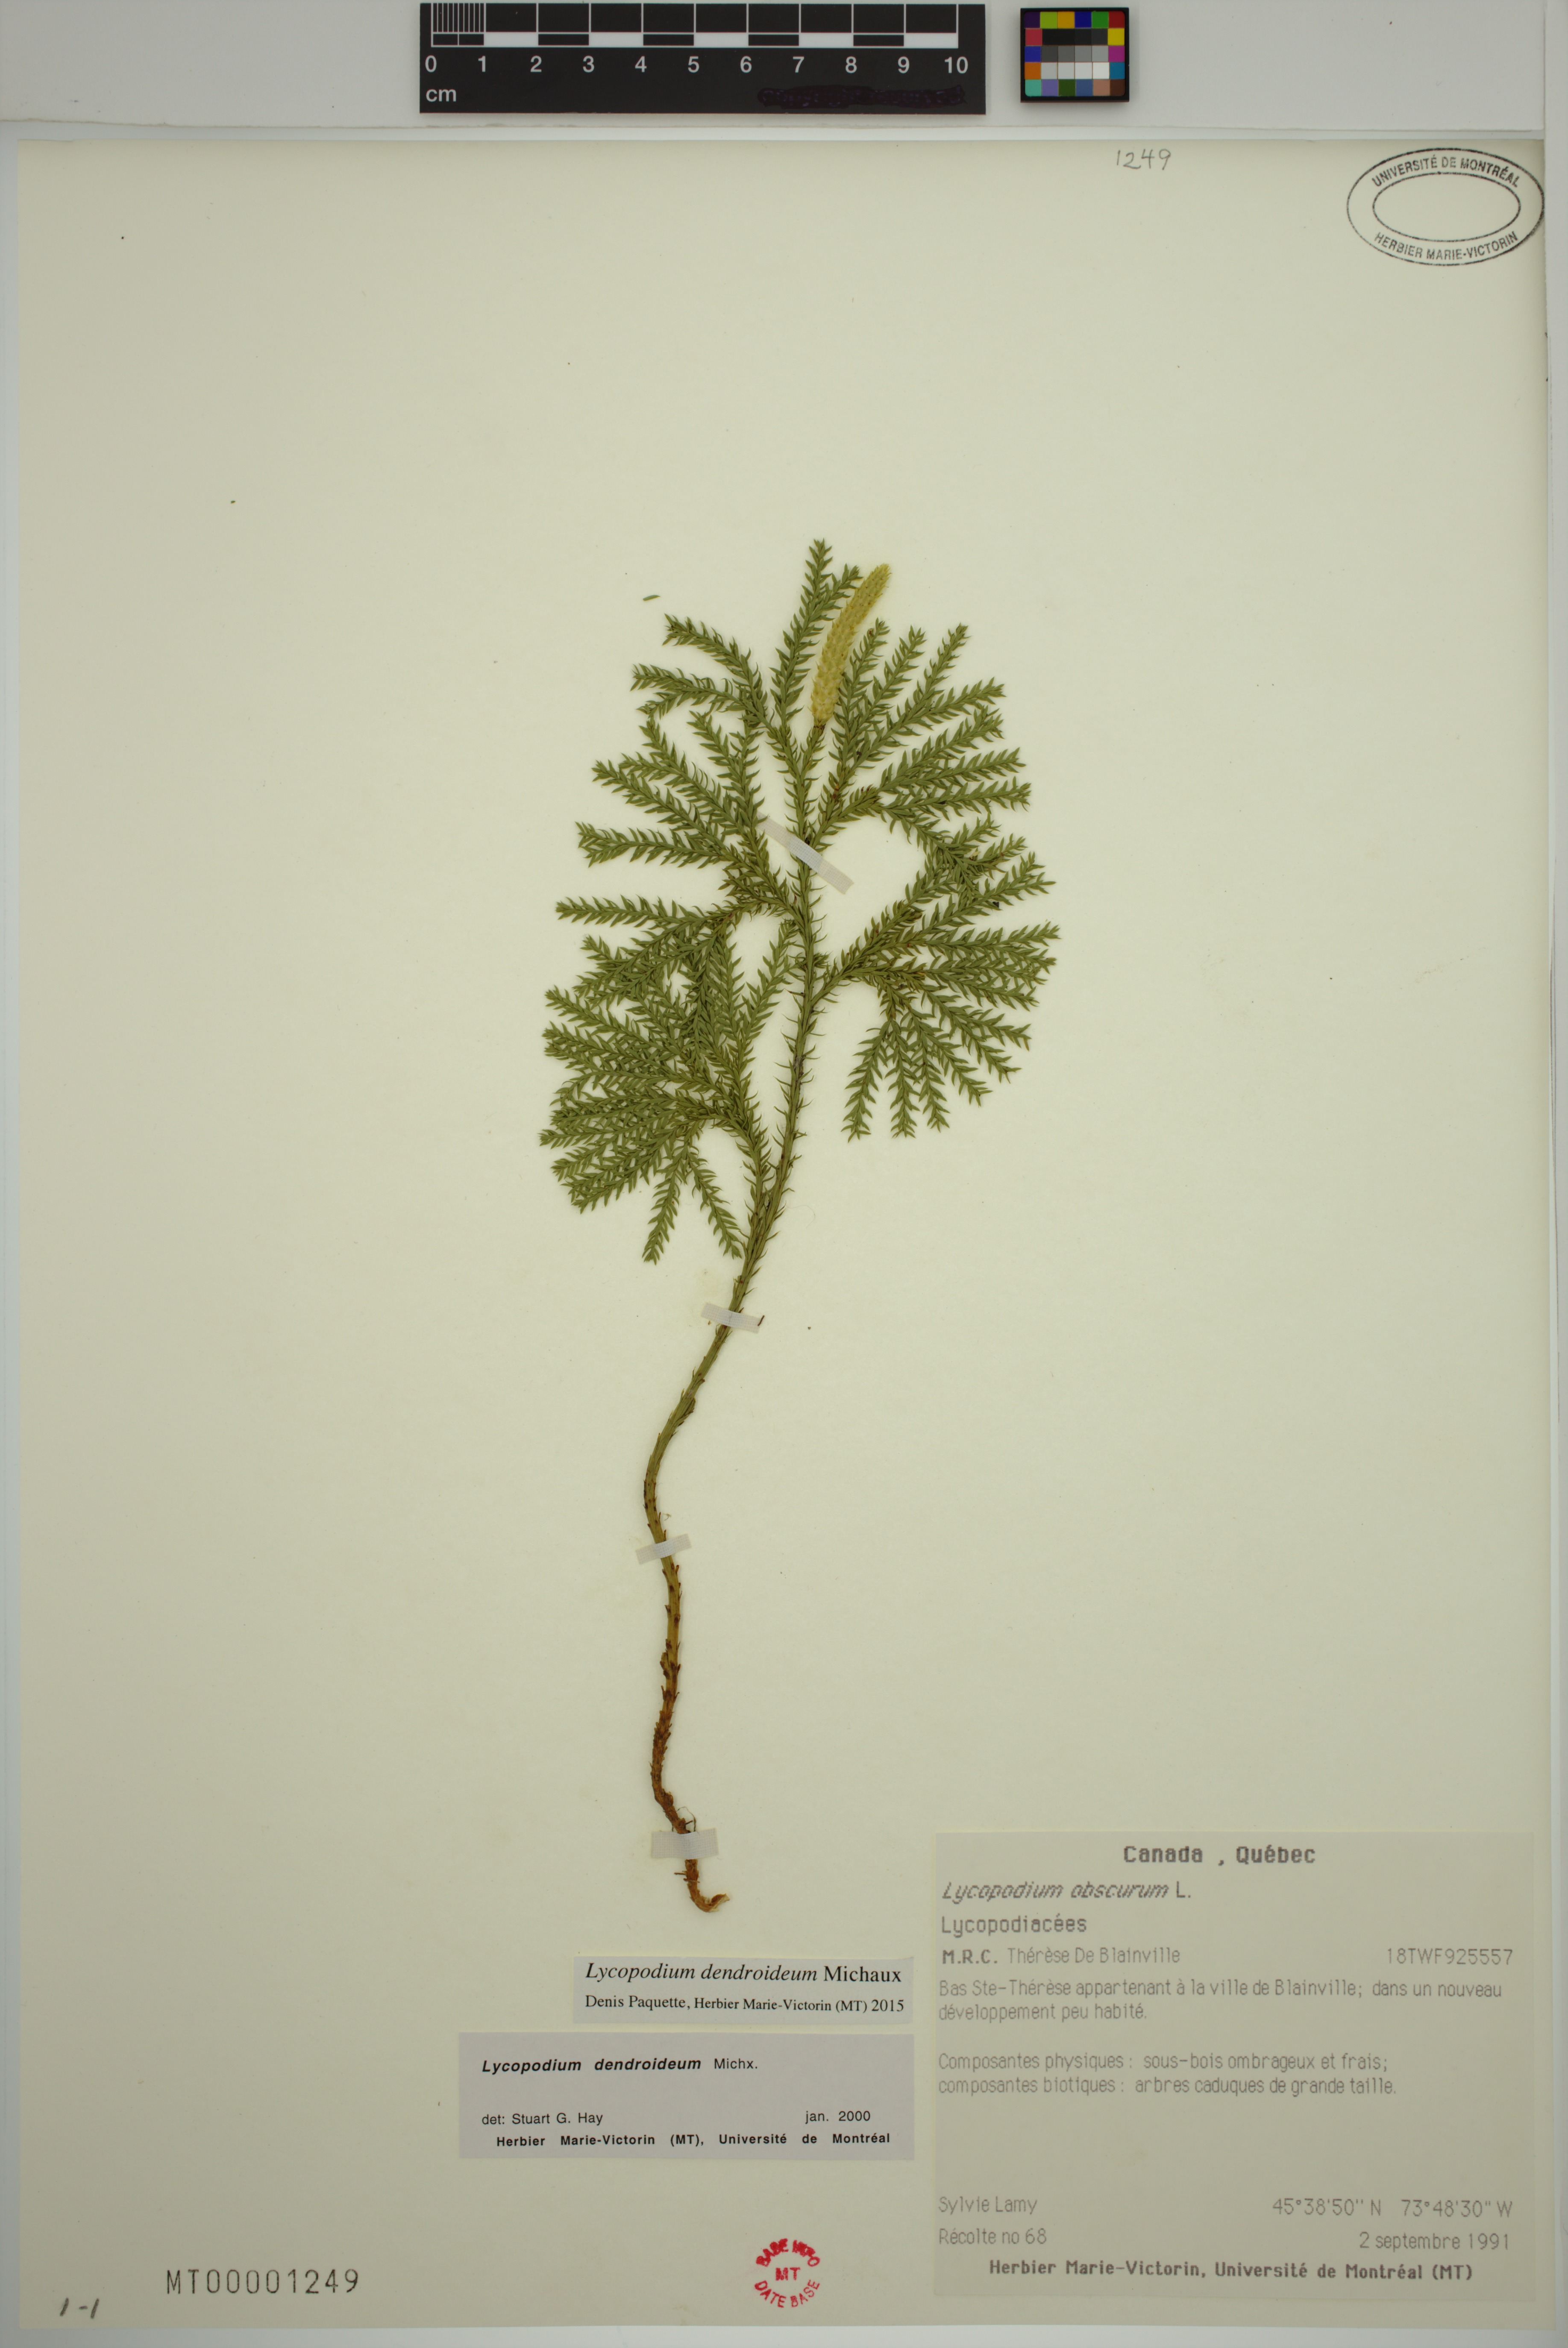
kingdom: Plantae
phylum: Tracheophyta
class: Lycopodiopsida
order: Lycopodiales
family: Lycopodiaceae
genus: Dendrolycopodium
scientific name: Dendrolycopodium dendroideum
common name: Northern tree-clubmoss
